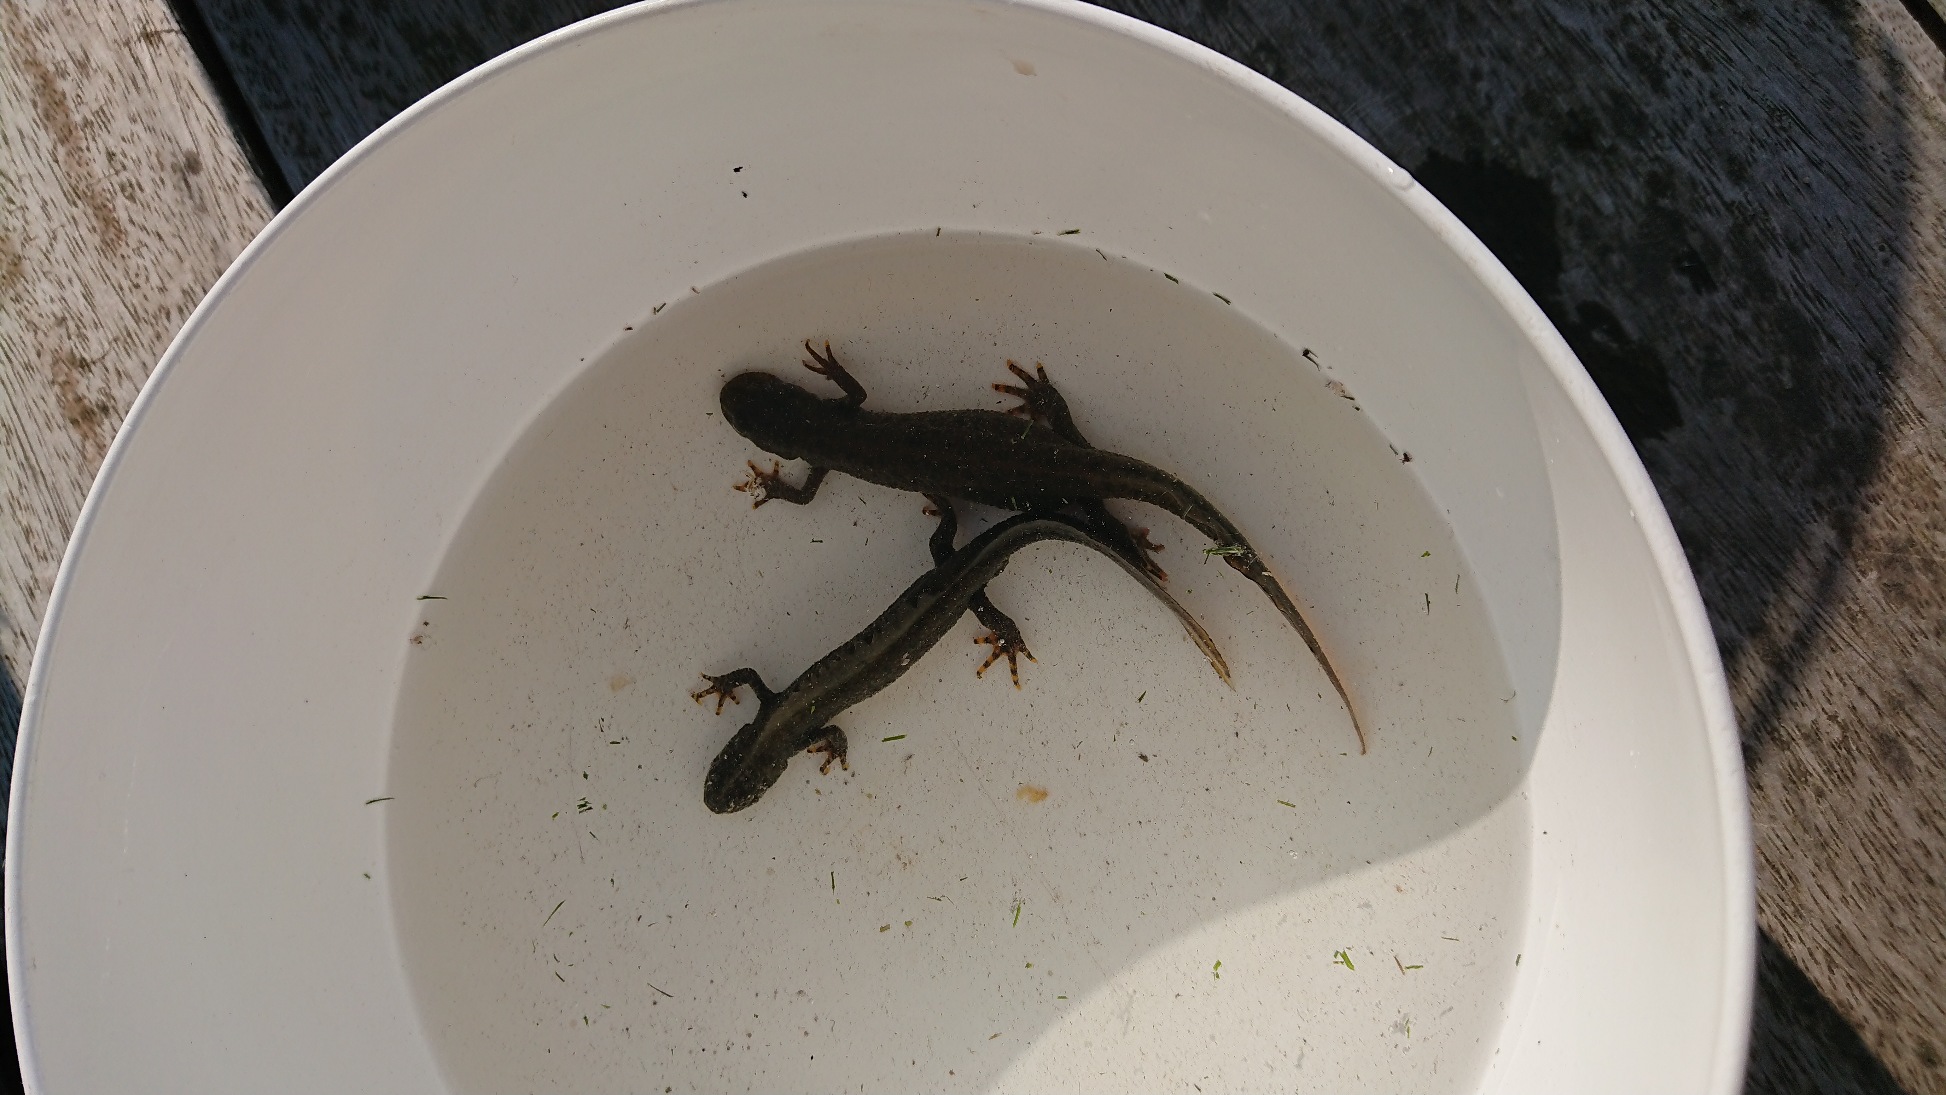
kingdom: Animalia
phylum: Chordata
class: Amphibia
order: Caudata
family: Salamandridae
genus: Triturus
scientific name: Triturus cristatus
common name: Stor vandsalamander
